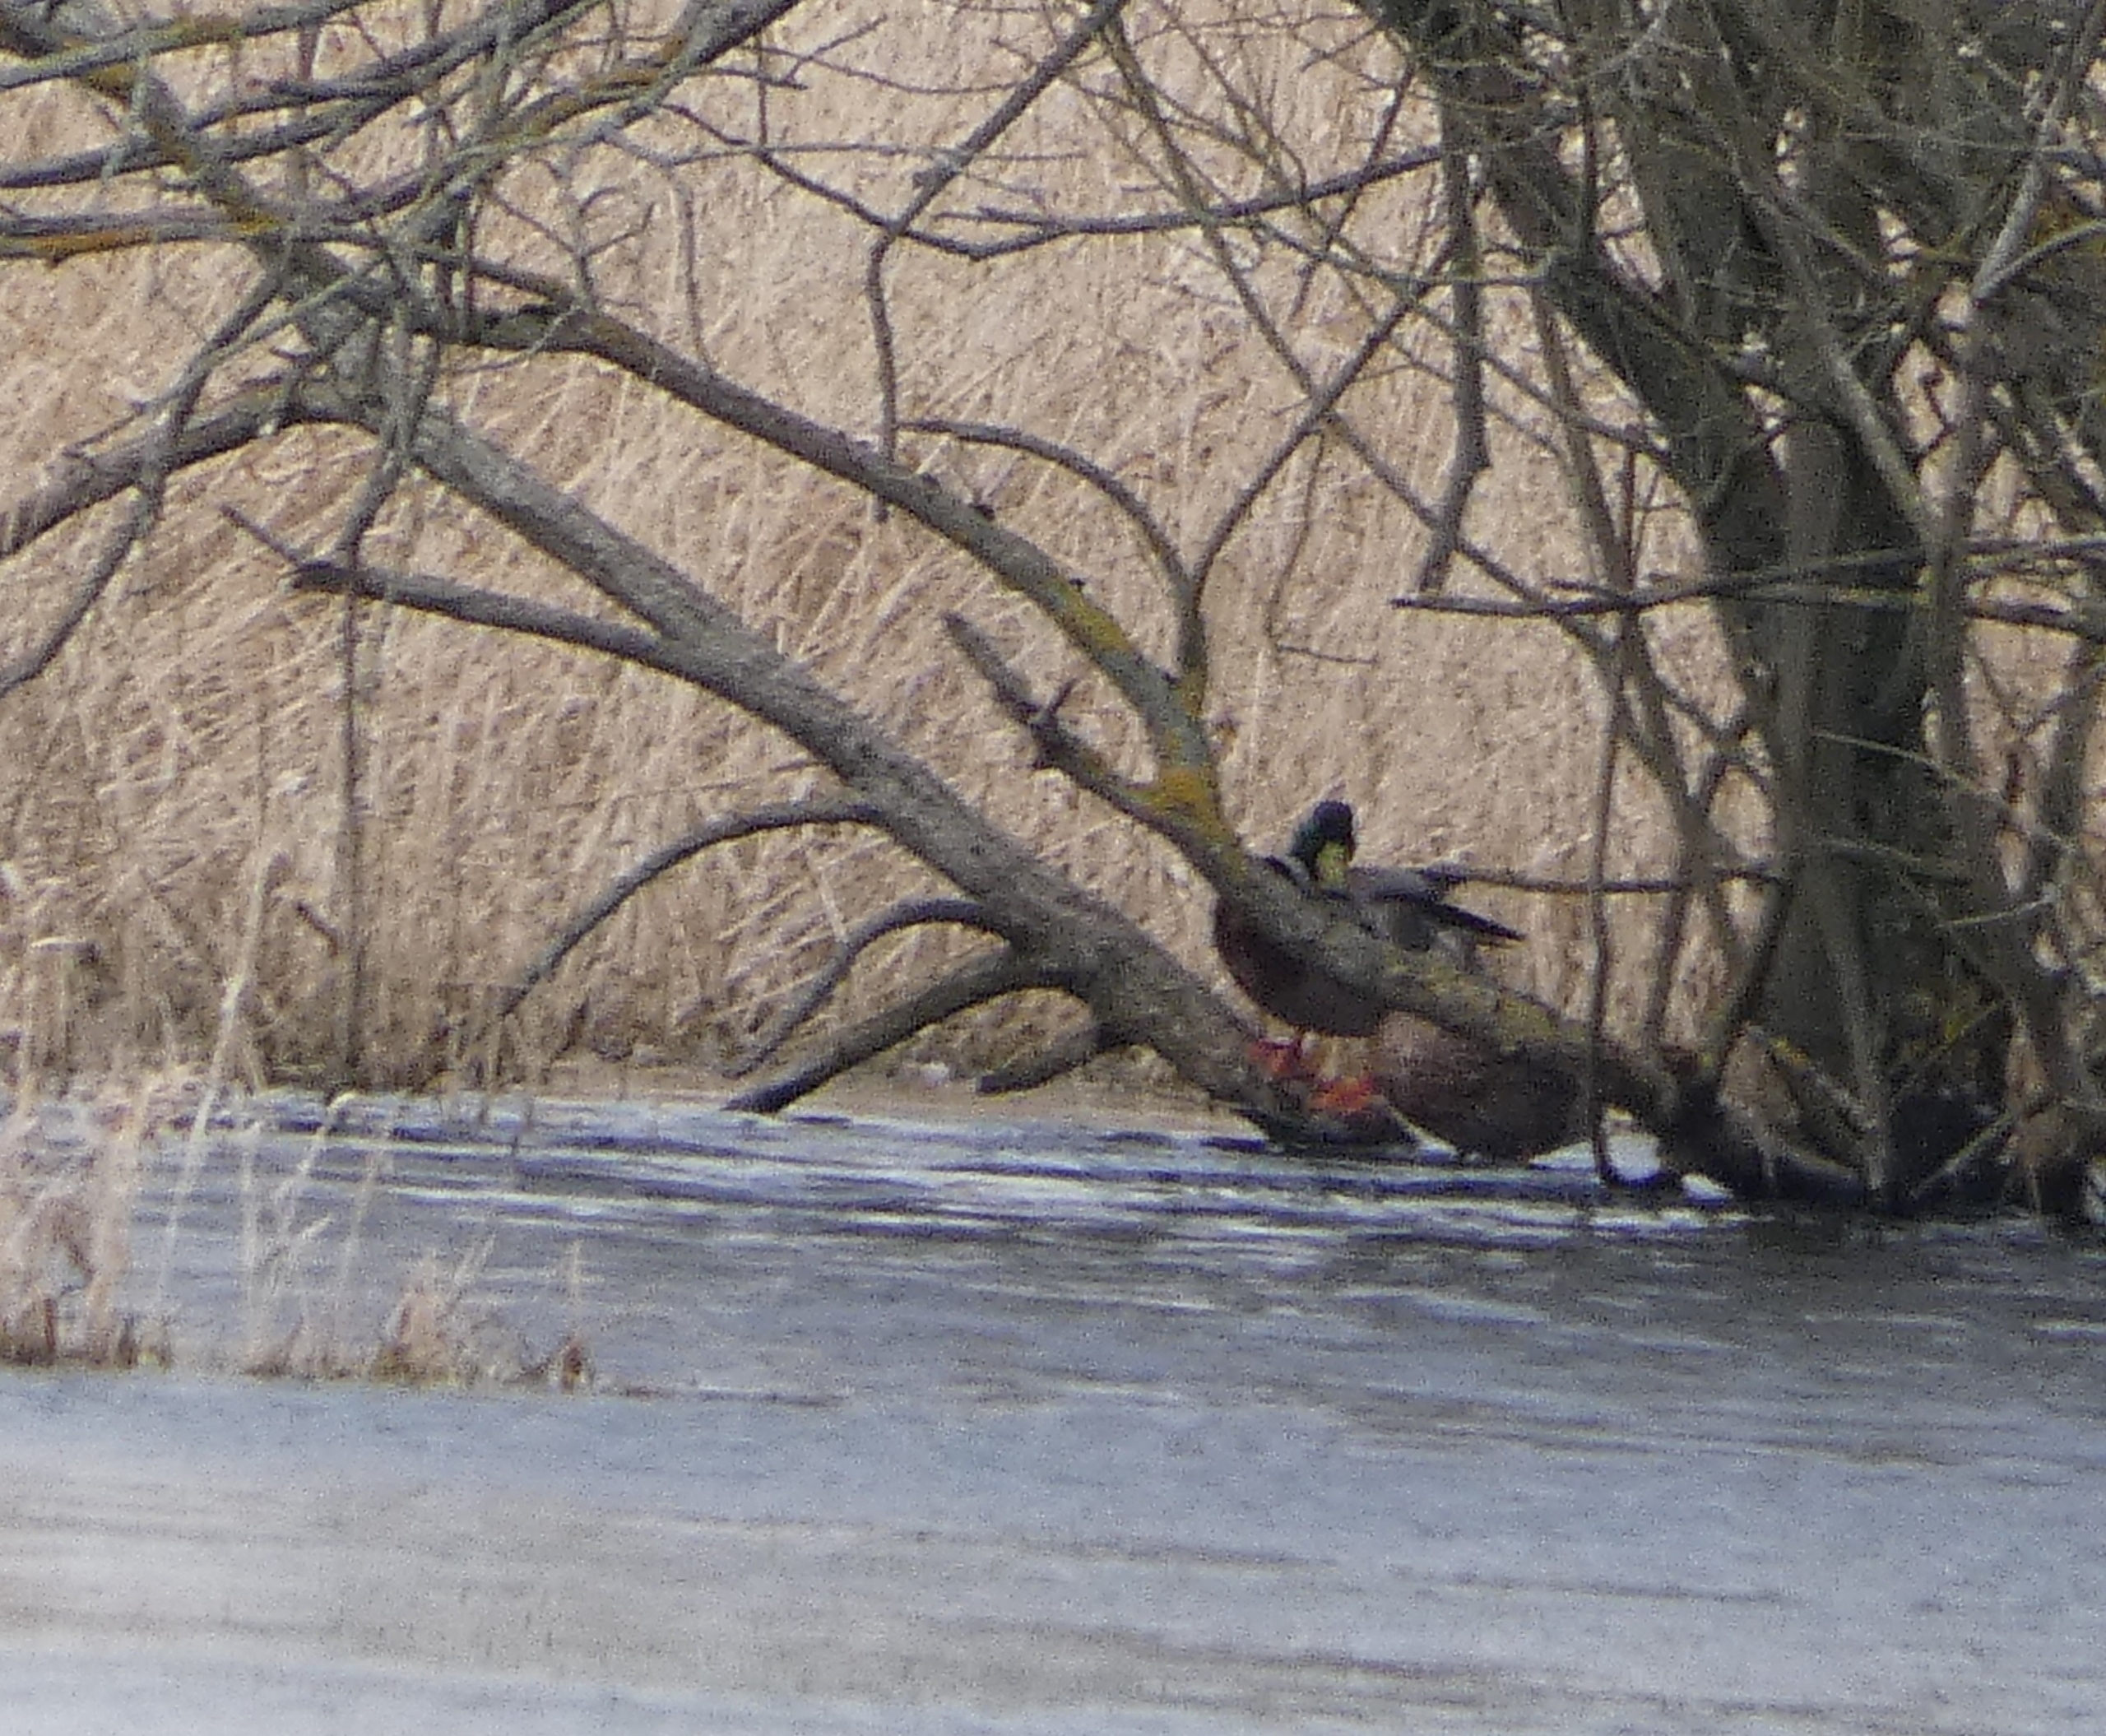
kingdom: Animalia
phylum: Chordata
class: Aves
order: Anseriformes
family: Anatidae
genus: Anas
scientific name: Anas platyrhynchos
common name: Gråand
